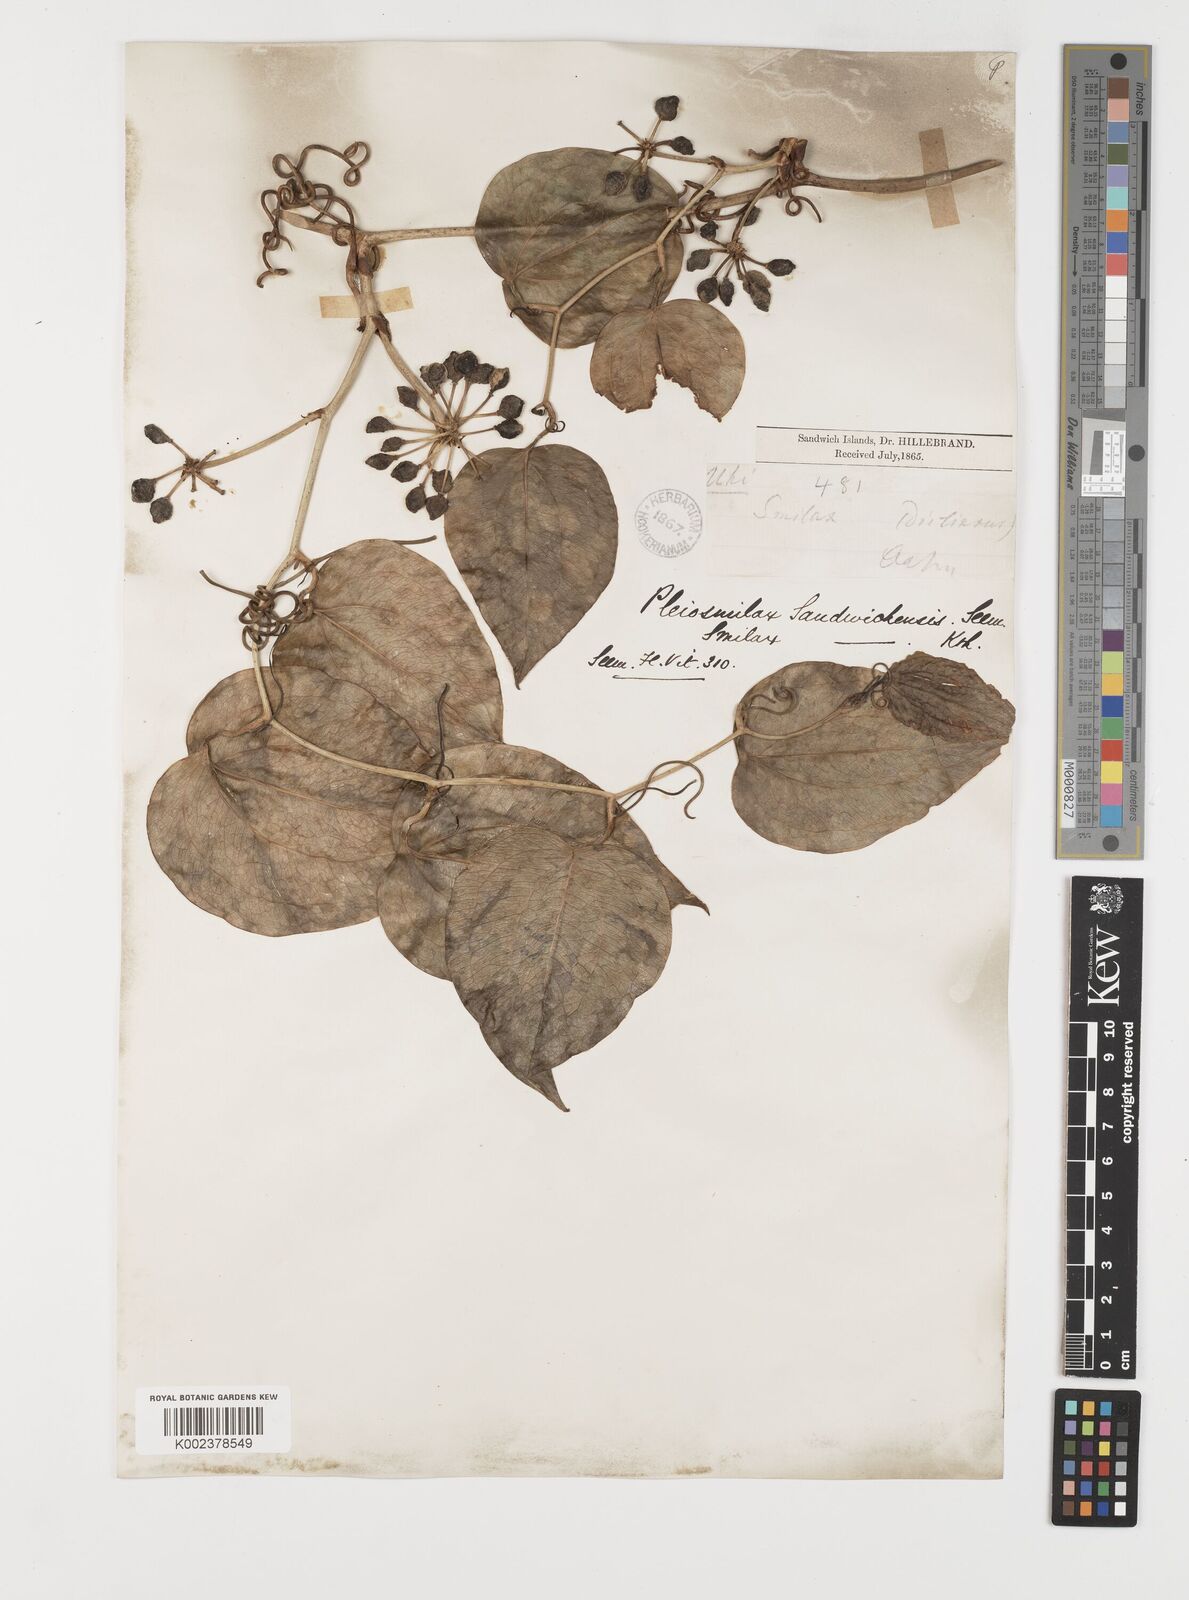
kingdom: Plantae
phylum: Tracheophyta
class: Liliopsida
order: Liliales
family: Smilacaceae
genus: Smilax
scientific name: Smilax melastomifolia
